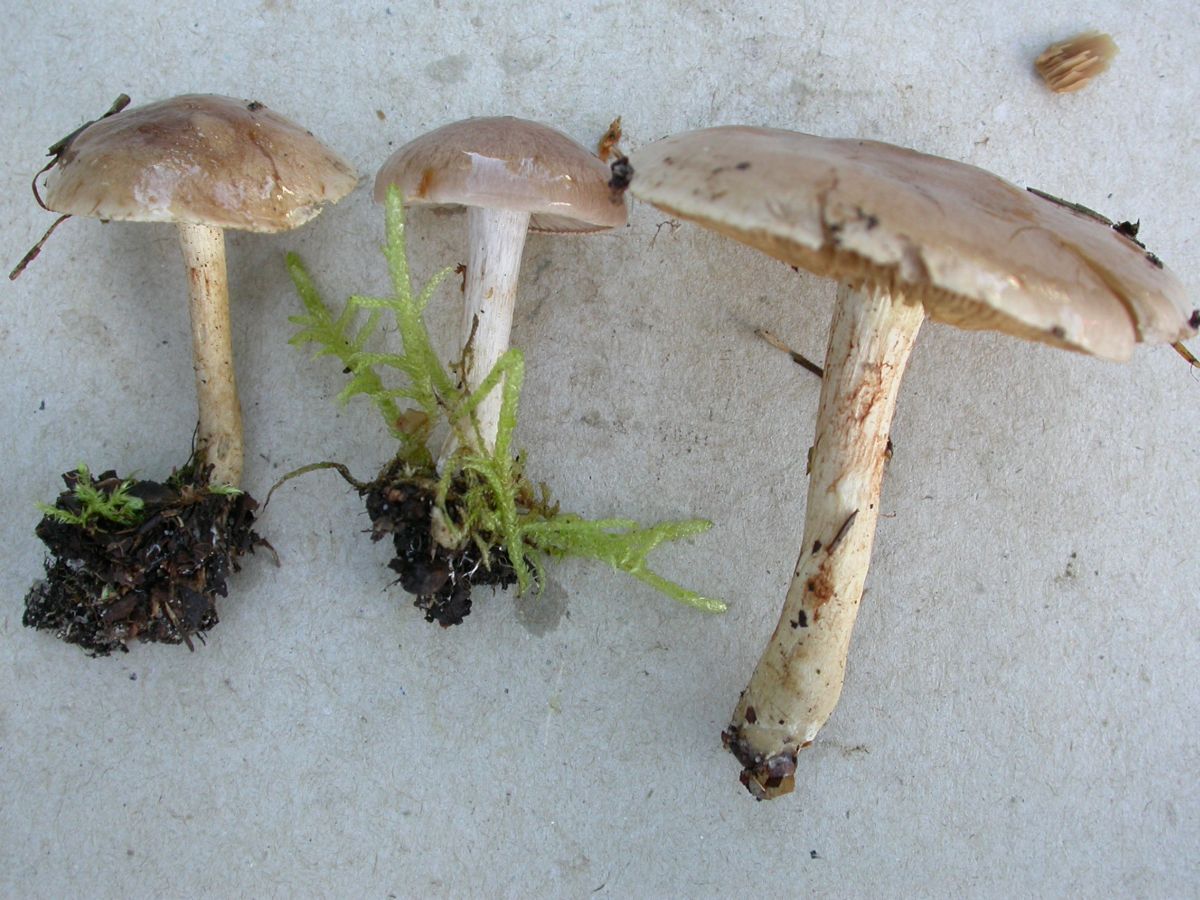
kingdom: Fungi
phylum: Basidiomycota
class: Agaricomycetes
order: Agaricales
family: Cortinariaceae
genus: Cortinarius
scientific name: Cortinarius tabularis
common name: lerbrun slørhat
